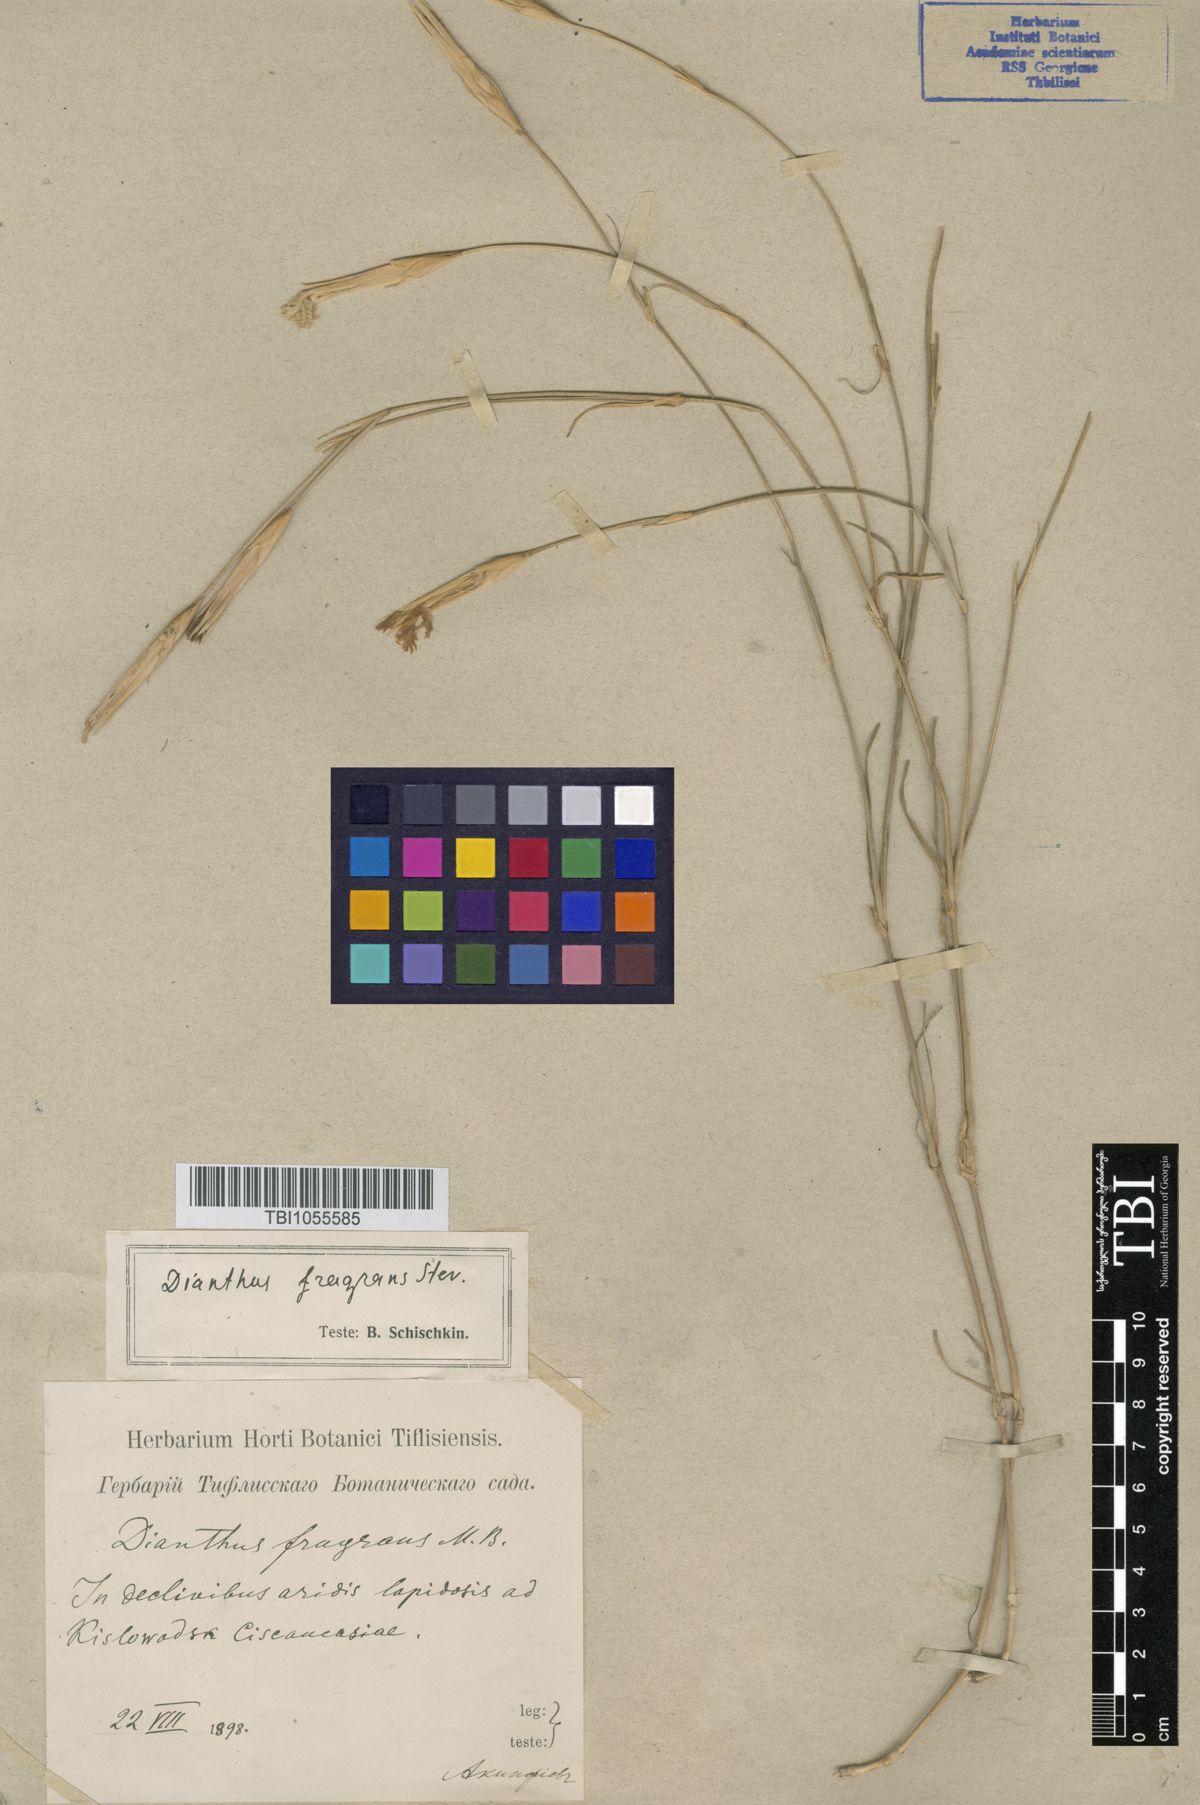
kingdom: Plantae
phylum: Tracheophyta
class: Magnoliopsida
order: Caryophyllales
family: Caryophyllaceae
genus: Dianthus
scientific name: Dianthus
